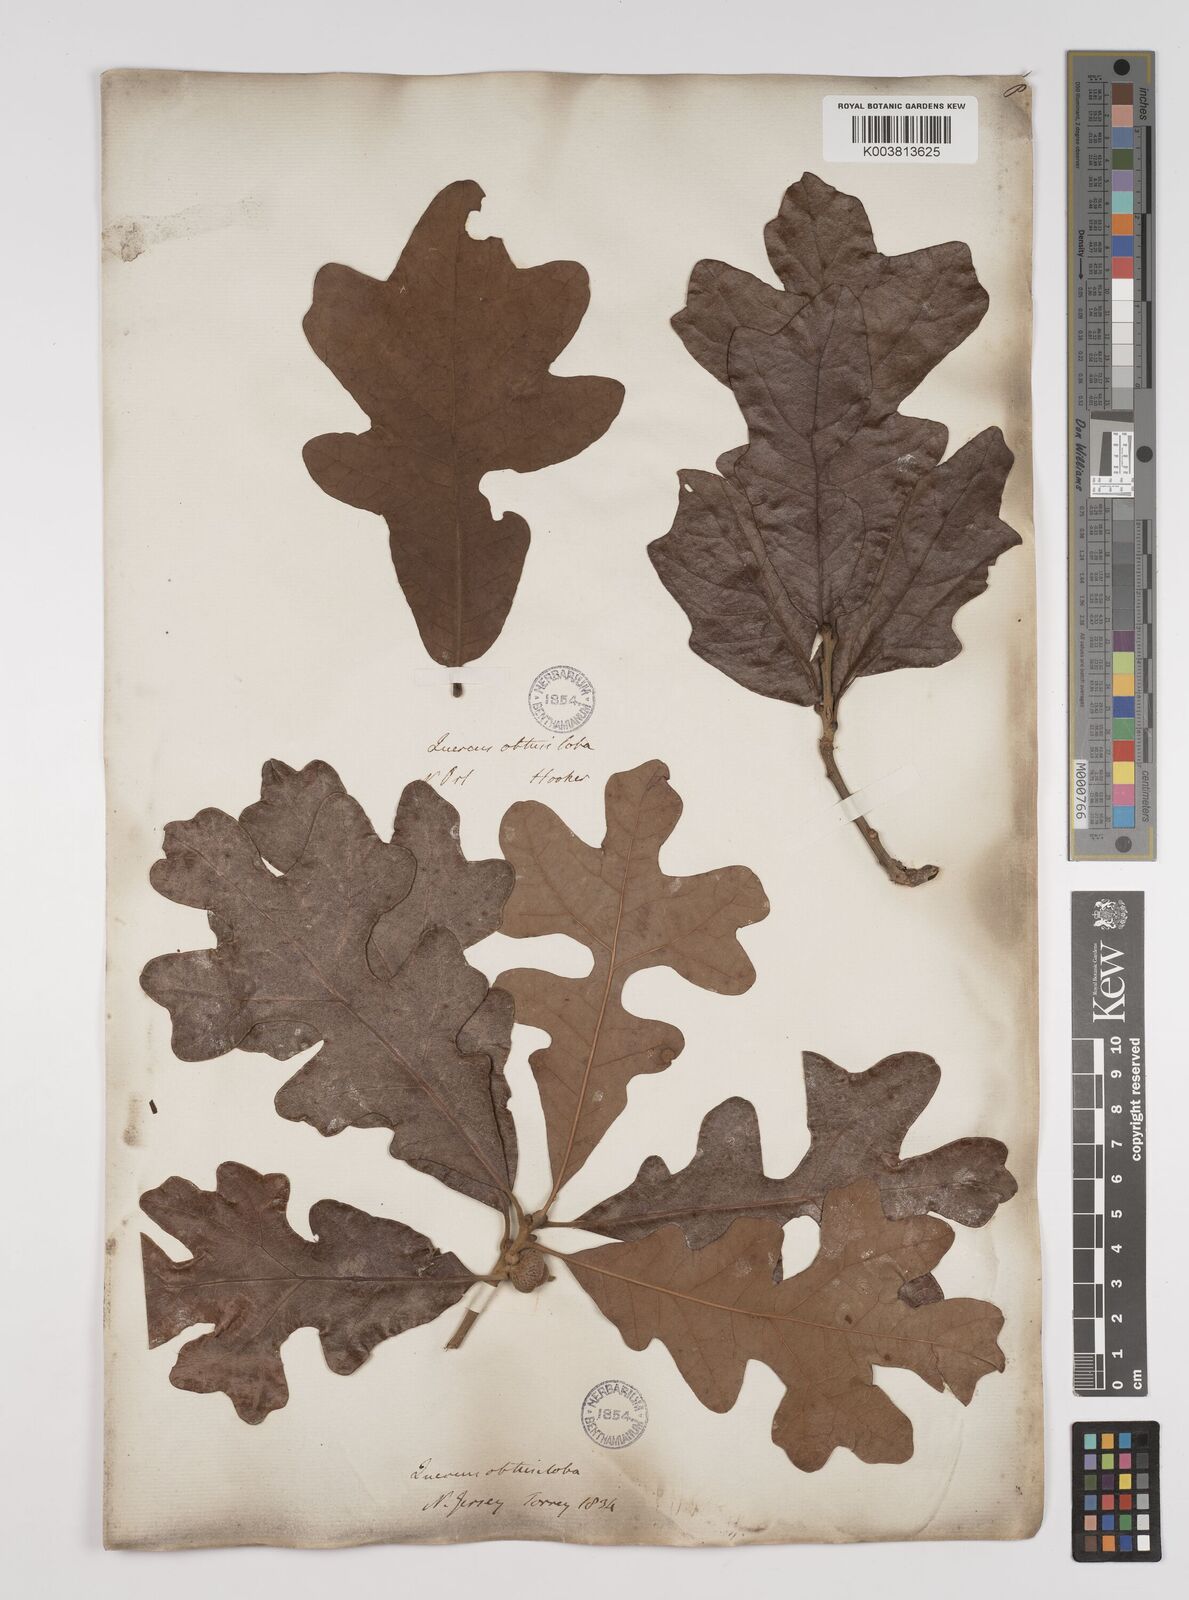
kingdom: Plantae
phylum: Tracheophyta
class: Magnoliopsida
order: Fagales
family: Fagaceae
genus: Quercus
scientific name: Quercus stellata
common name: Post oak
